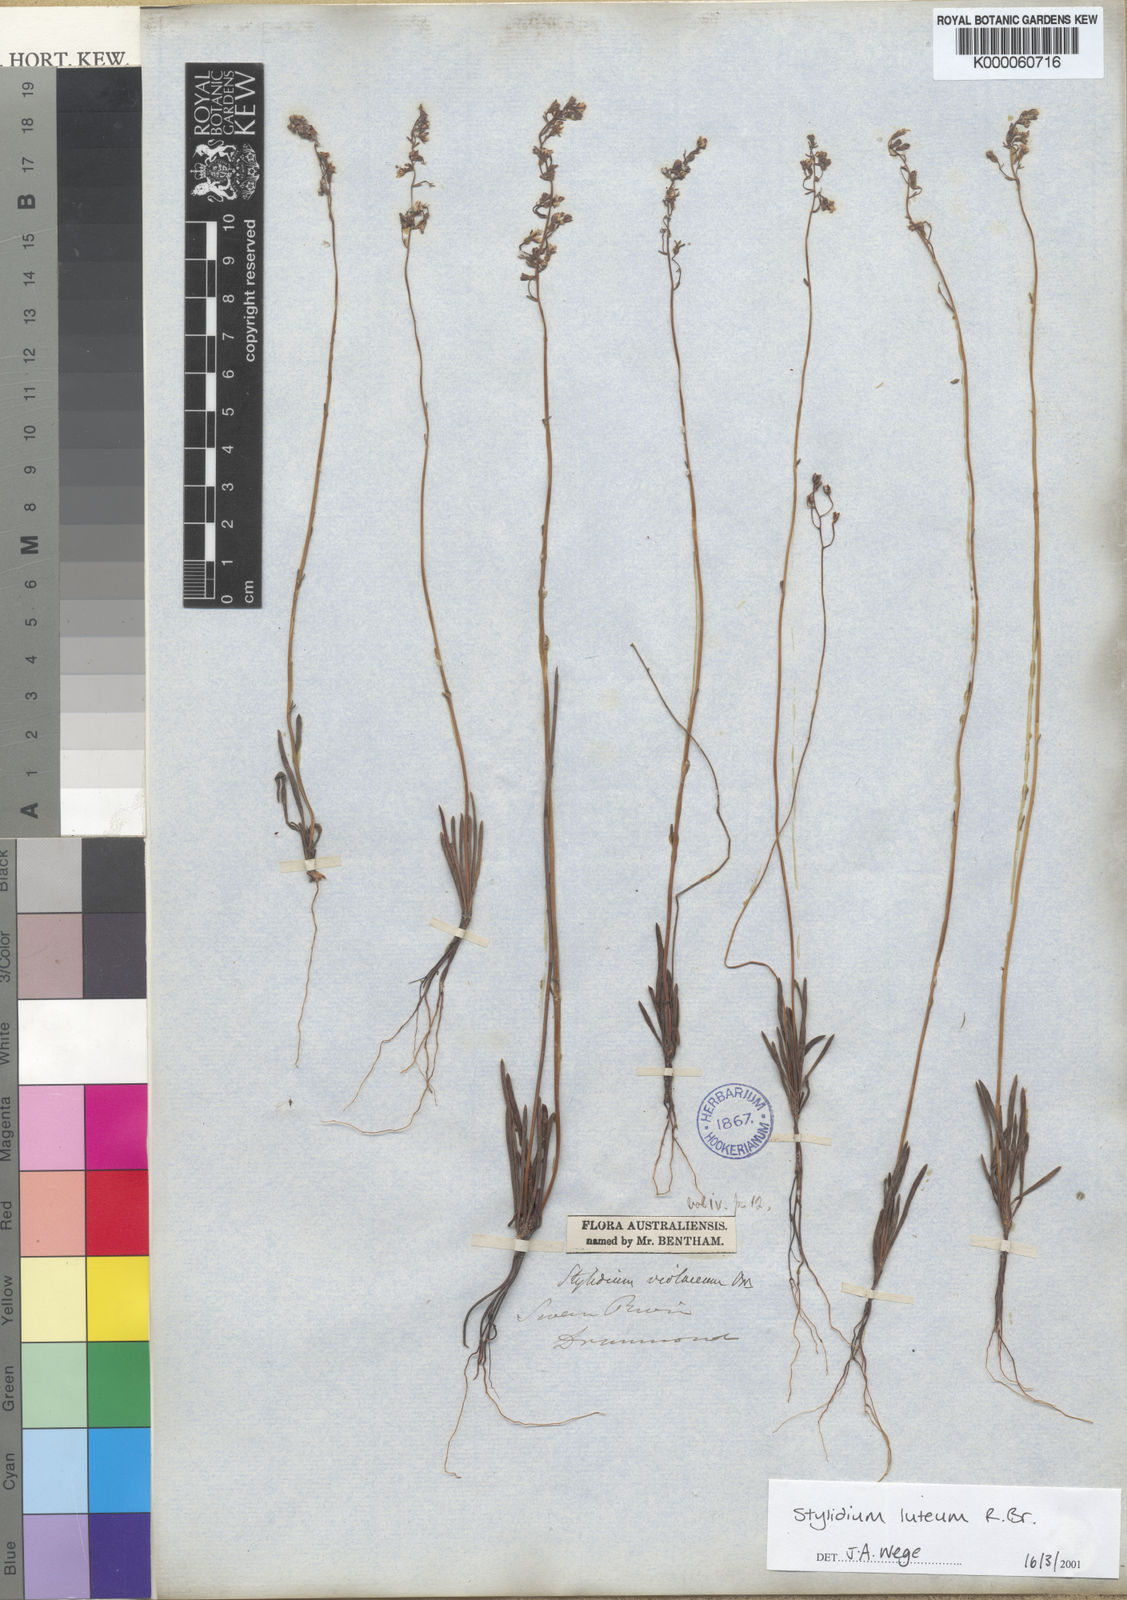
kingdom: Plantae
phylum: Tracheophyta
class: Magnoliopsida
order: Asterales
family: Stylidiaceae
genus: Stylidium
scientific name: Stylidium luteum
